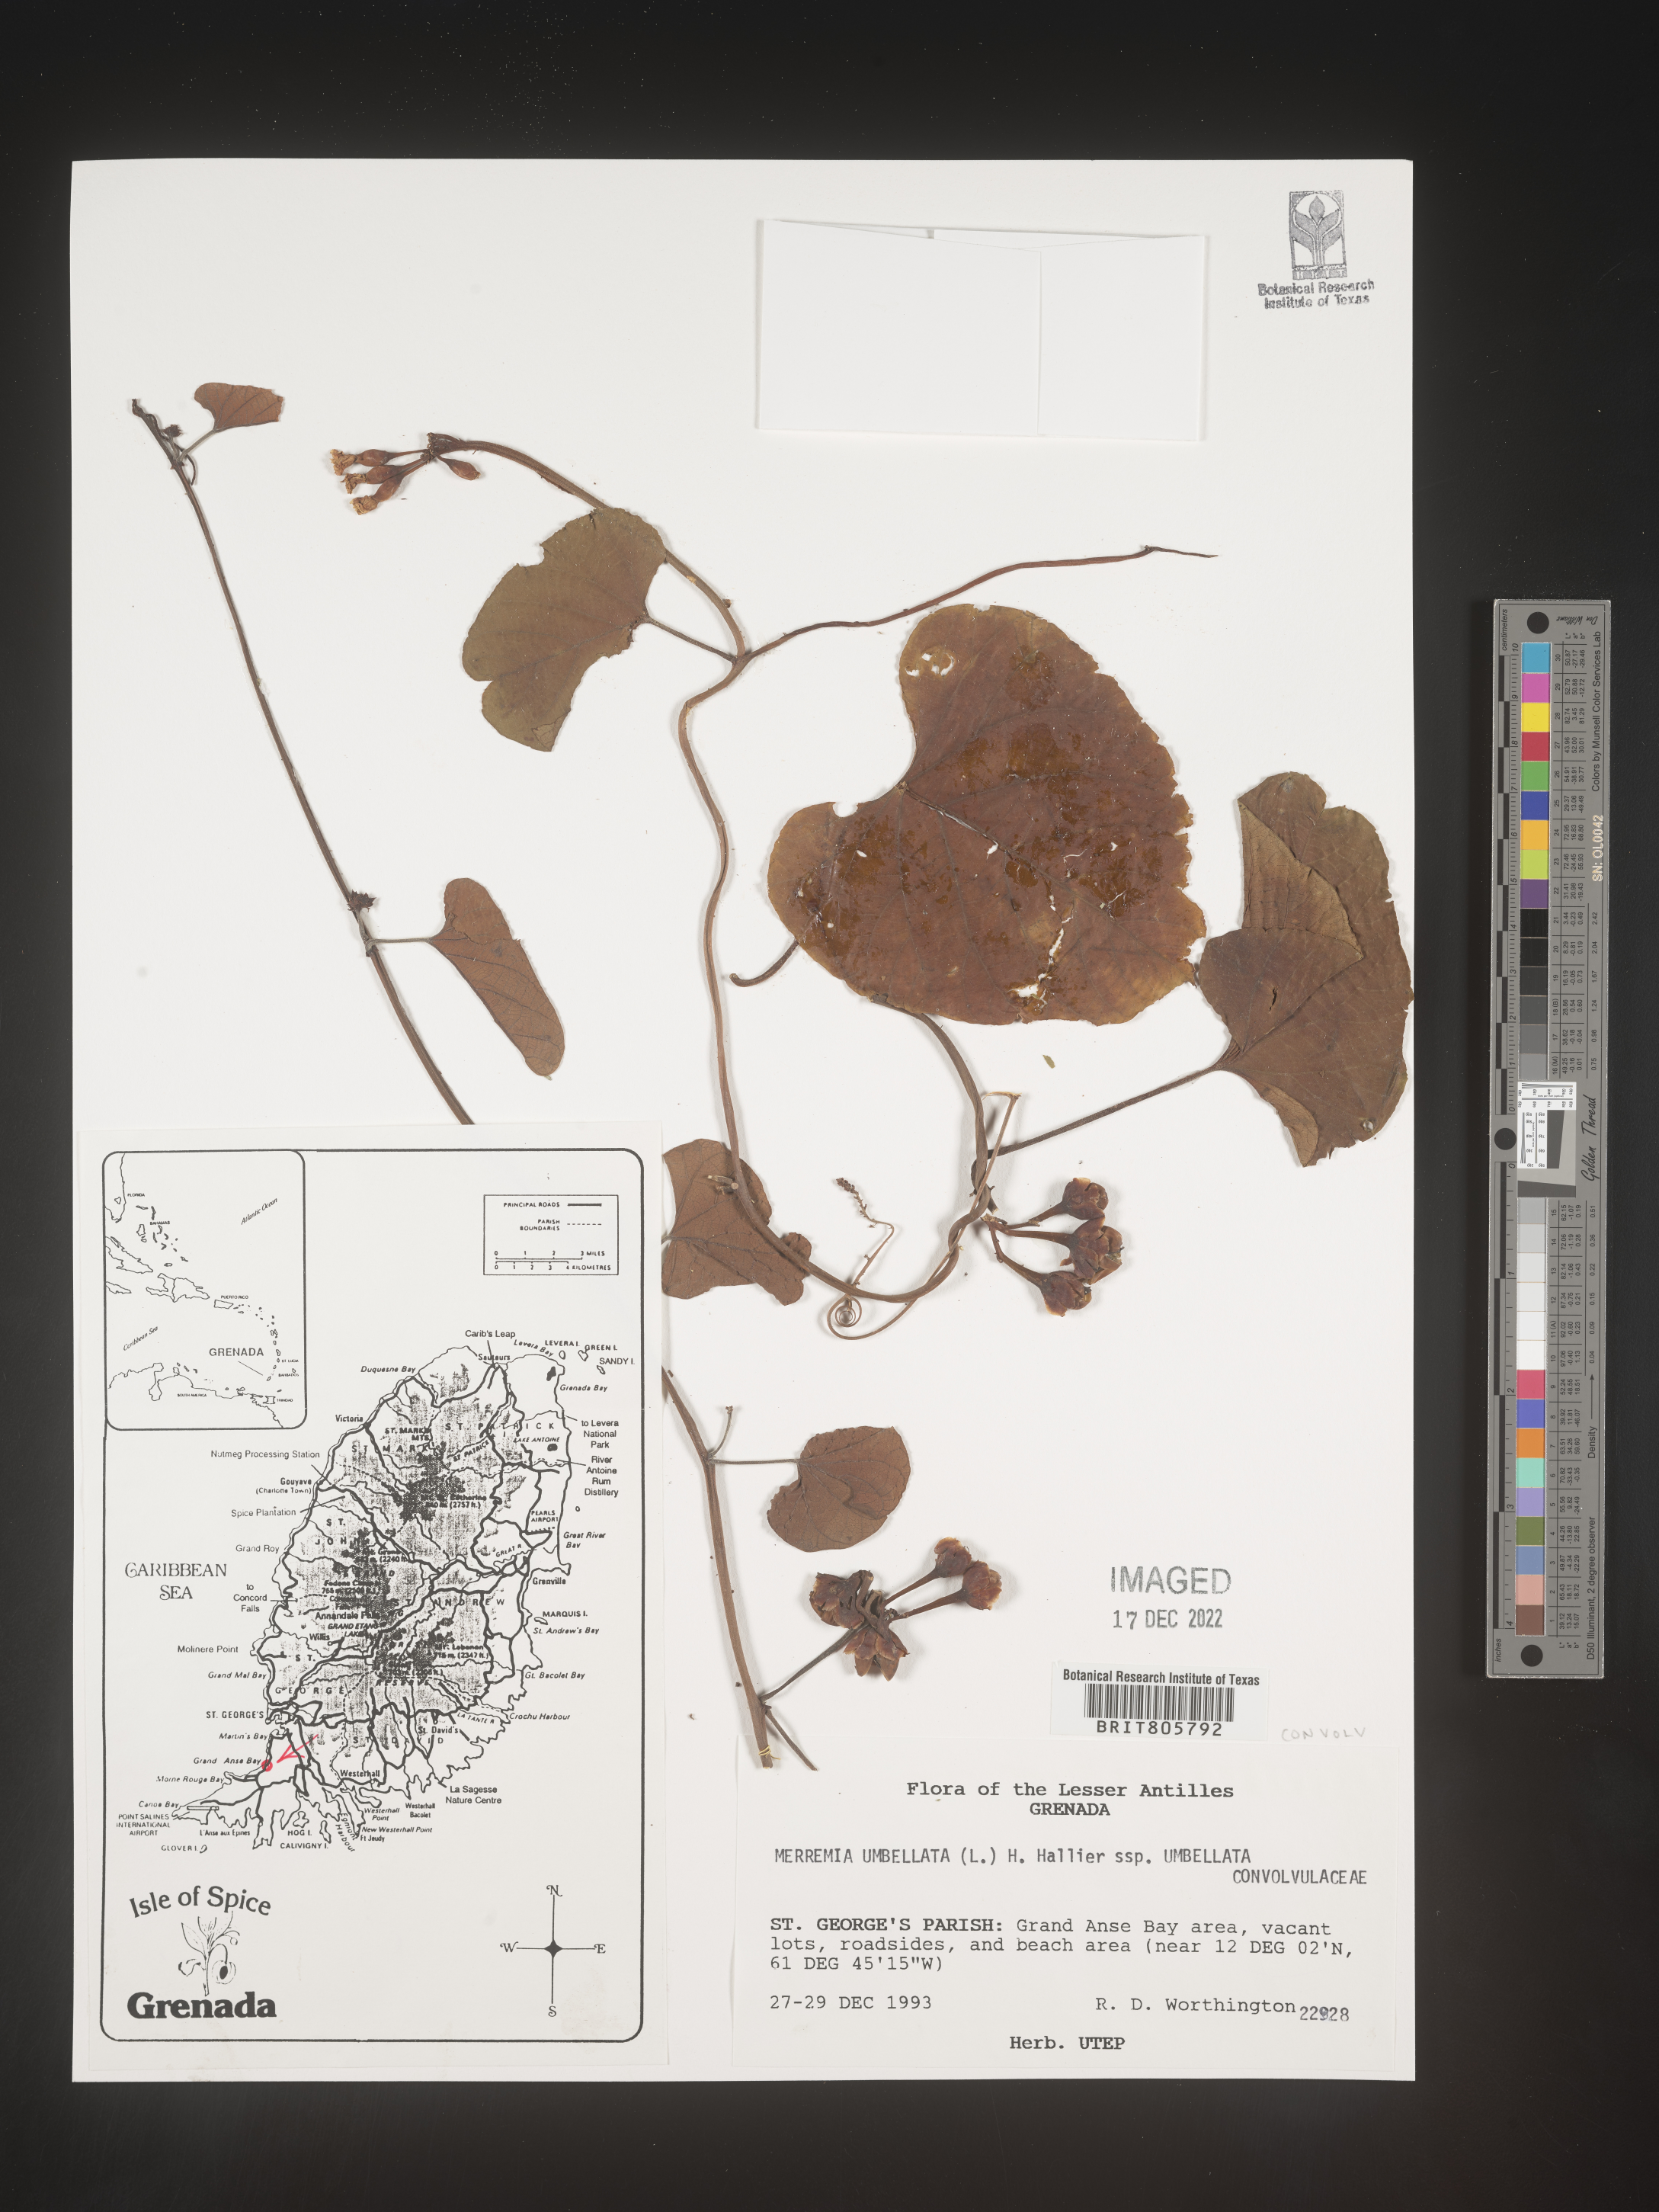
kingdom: Plantae
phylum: Tracheophyta
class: Magnoliopsida
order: Solanales
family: Convolvulaceae
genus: Merremia
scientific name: Merremia
